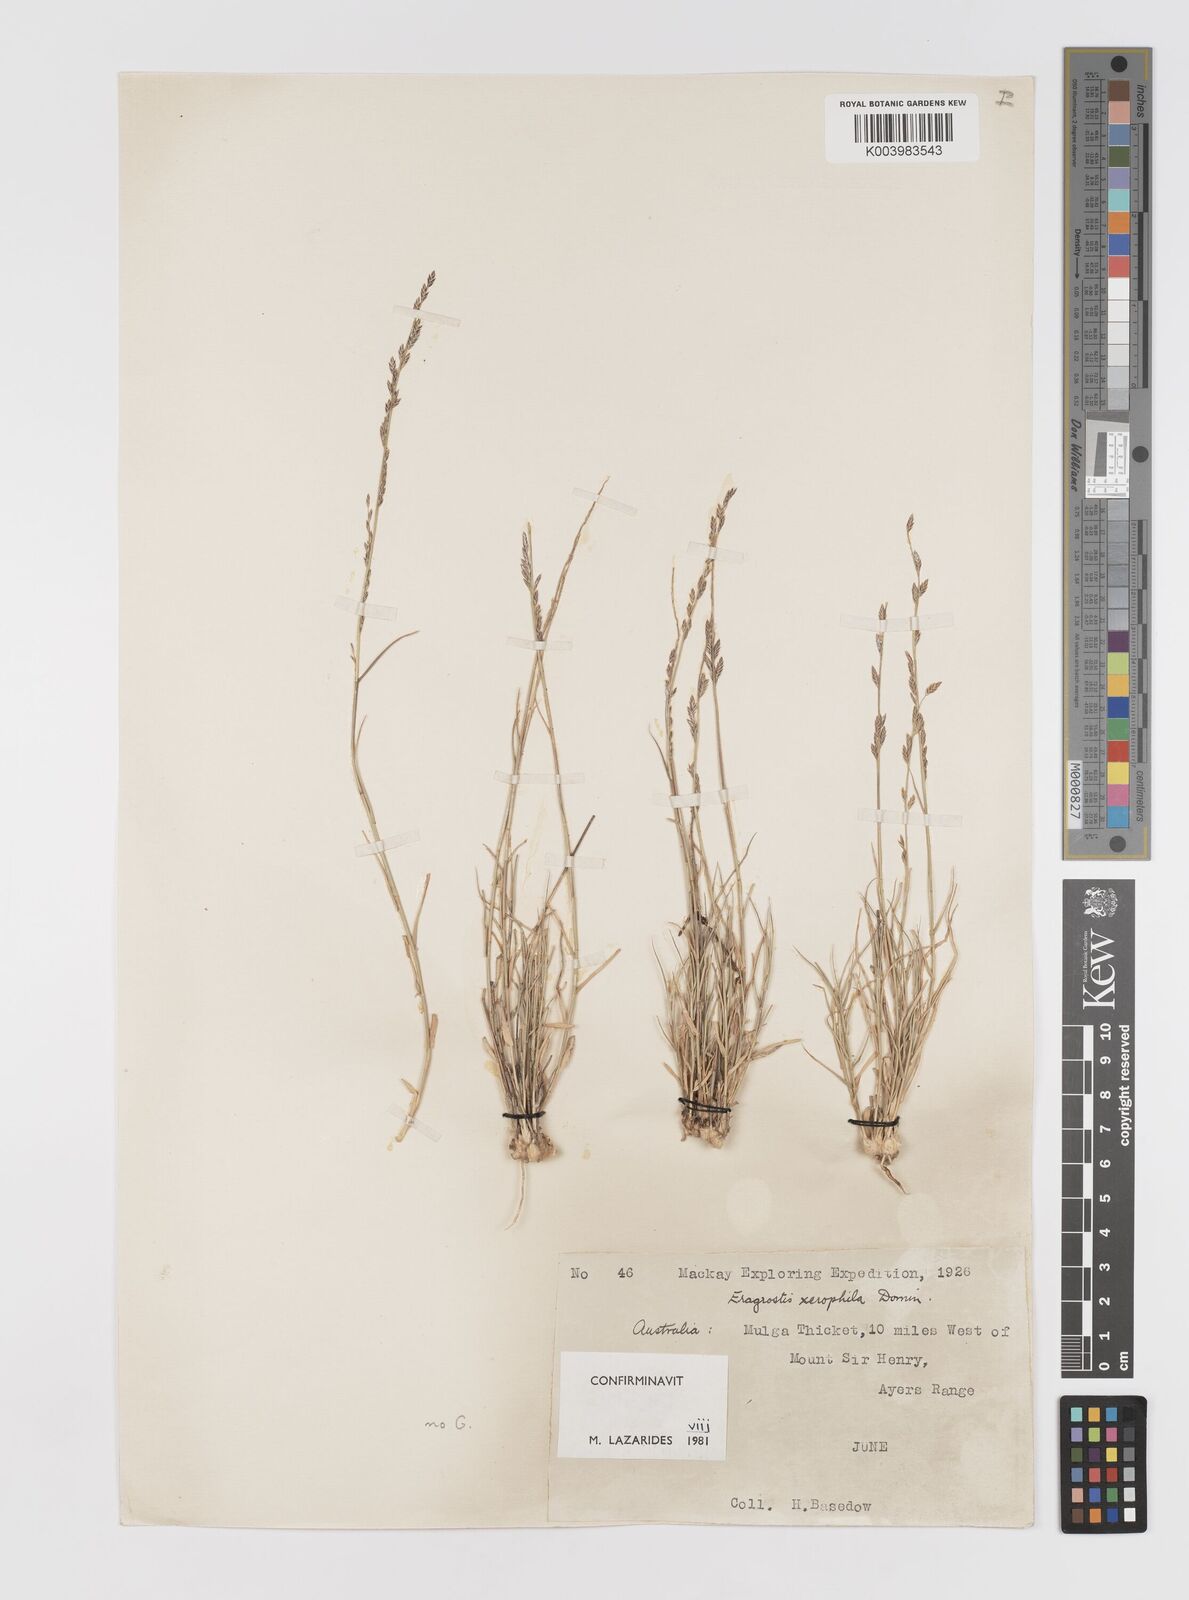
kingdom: Plantae
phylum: Tracheophyta
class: Liliopsida
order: Poales
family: Poaceae
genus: Eragrostis
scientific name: Eragrostis xerophila
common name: Wire wandarrie grass
